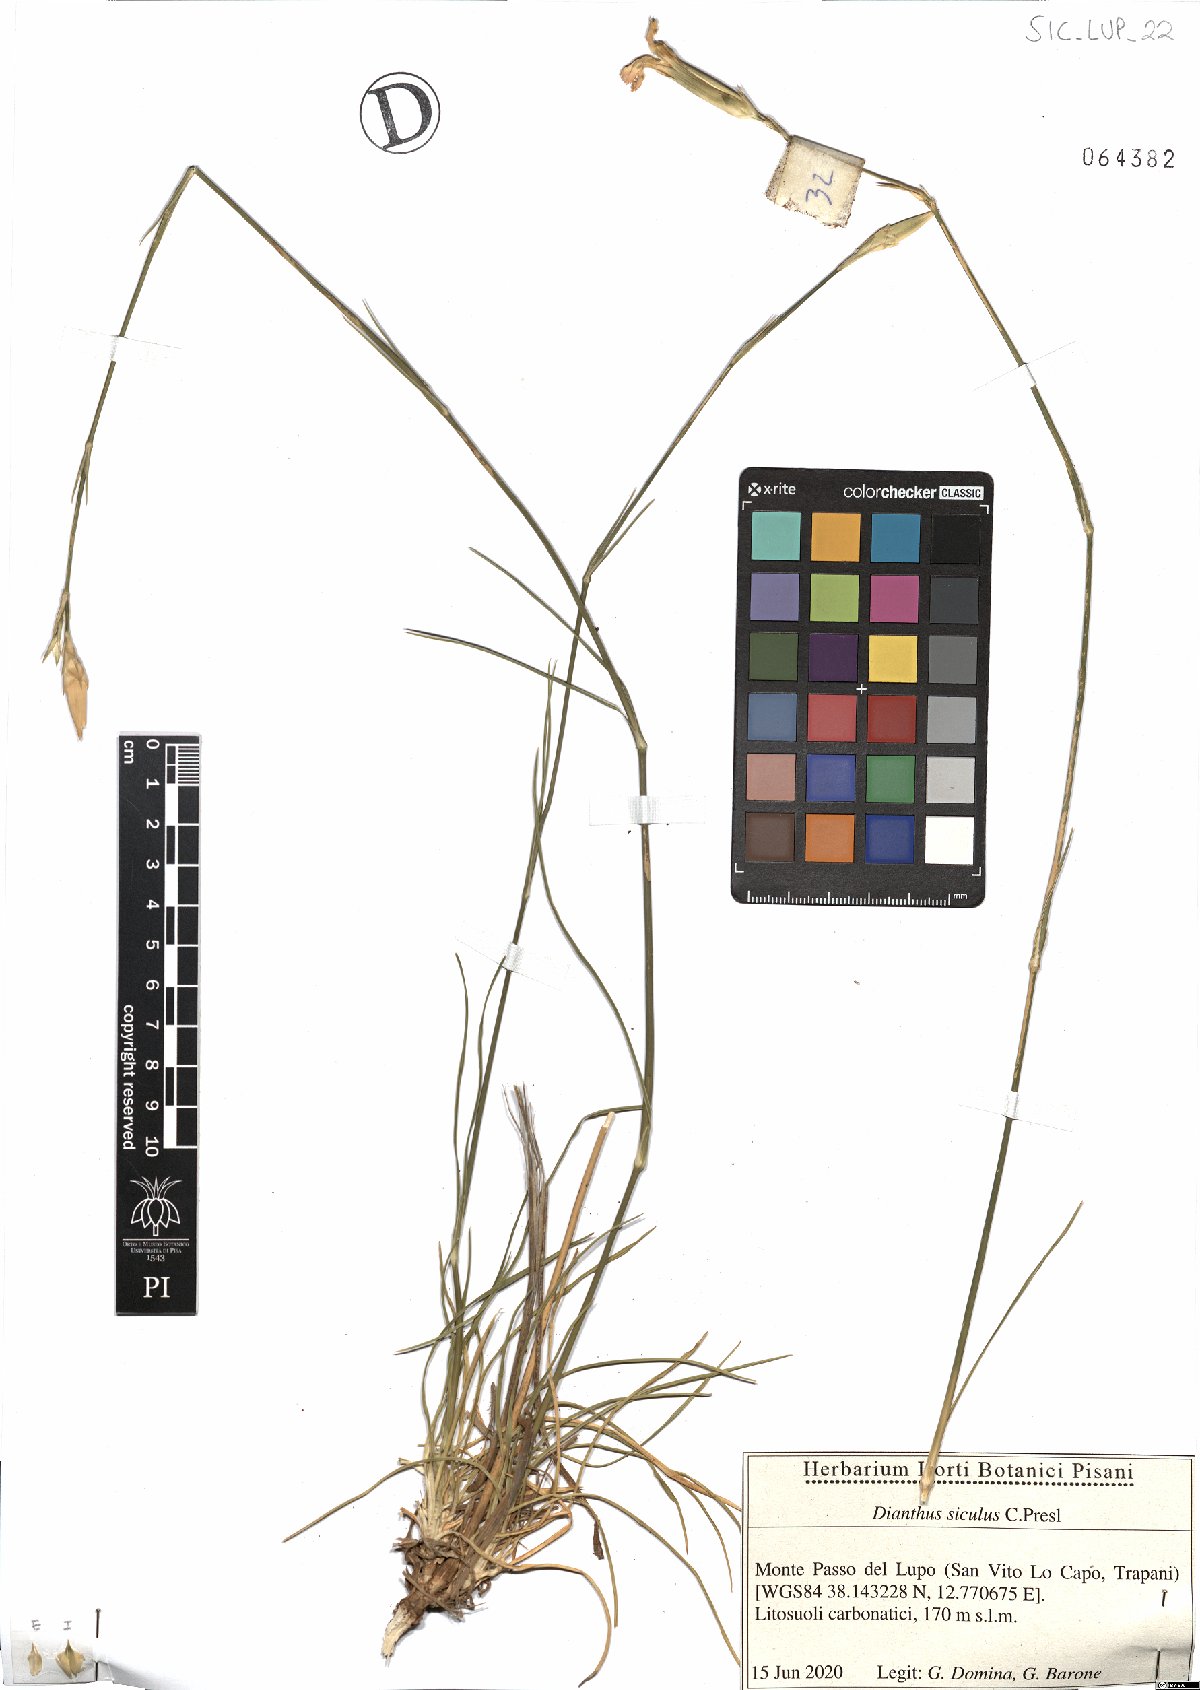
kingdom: Plantae
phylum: Tracheophyta
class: Magnoliopsida
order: Caryophyllales
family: Caryophyllaceae
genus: Dianthus
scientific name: Dianthus siculus
